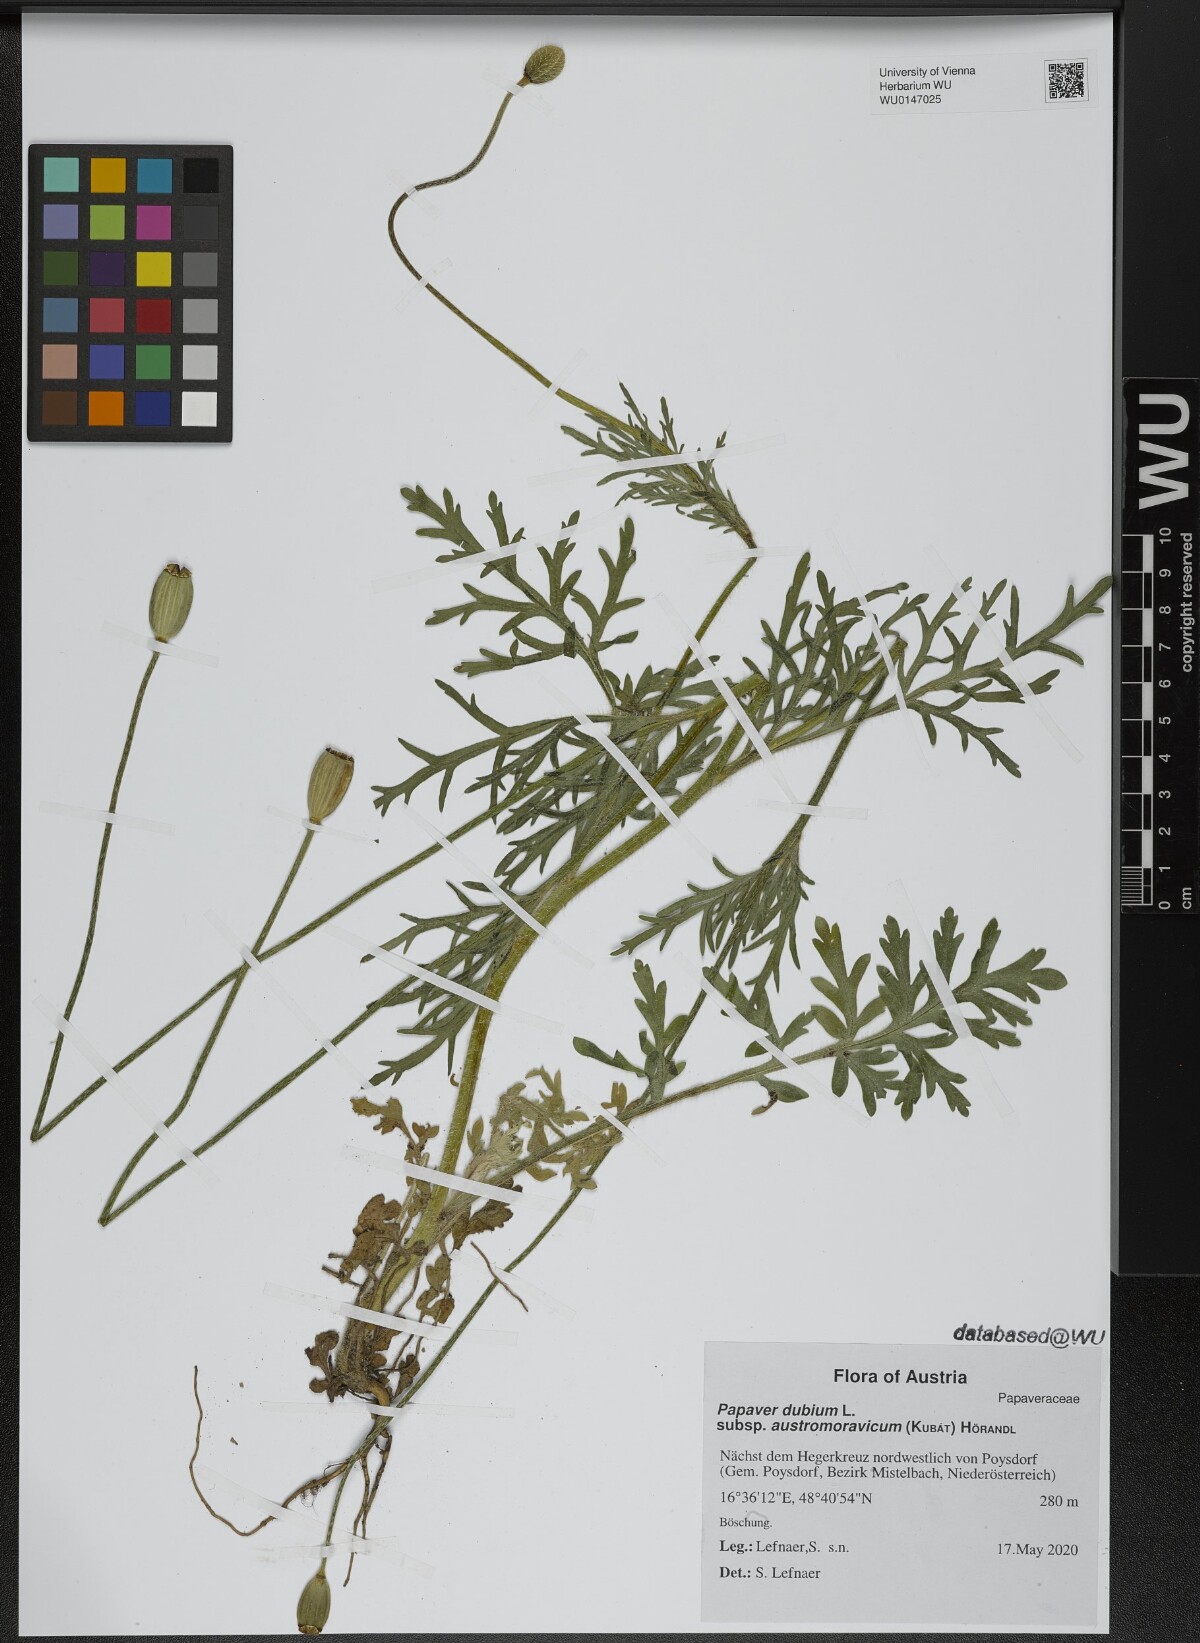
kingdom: Plantae
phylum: Tracheophyta
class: Magnoliopsida
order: Ranunculales
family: Papaveraceae
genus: Papaver
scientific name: Papaver dubium
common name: Long-headed poppy
